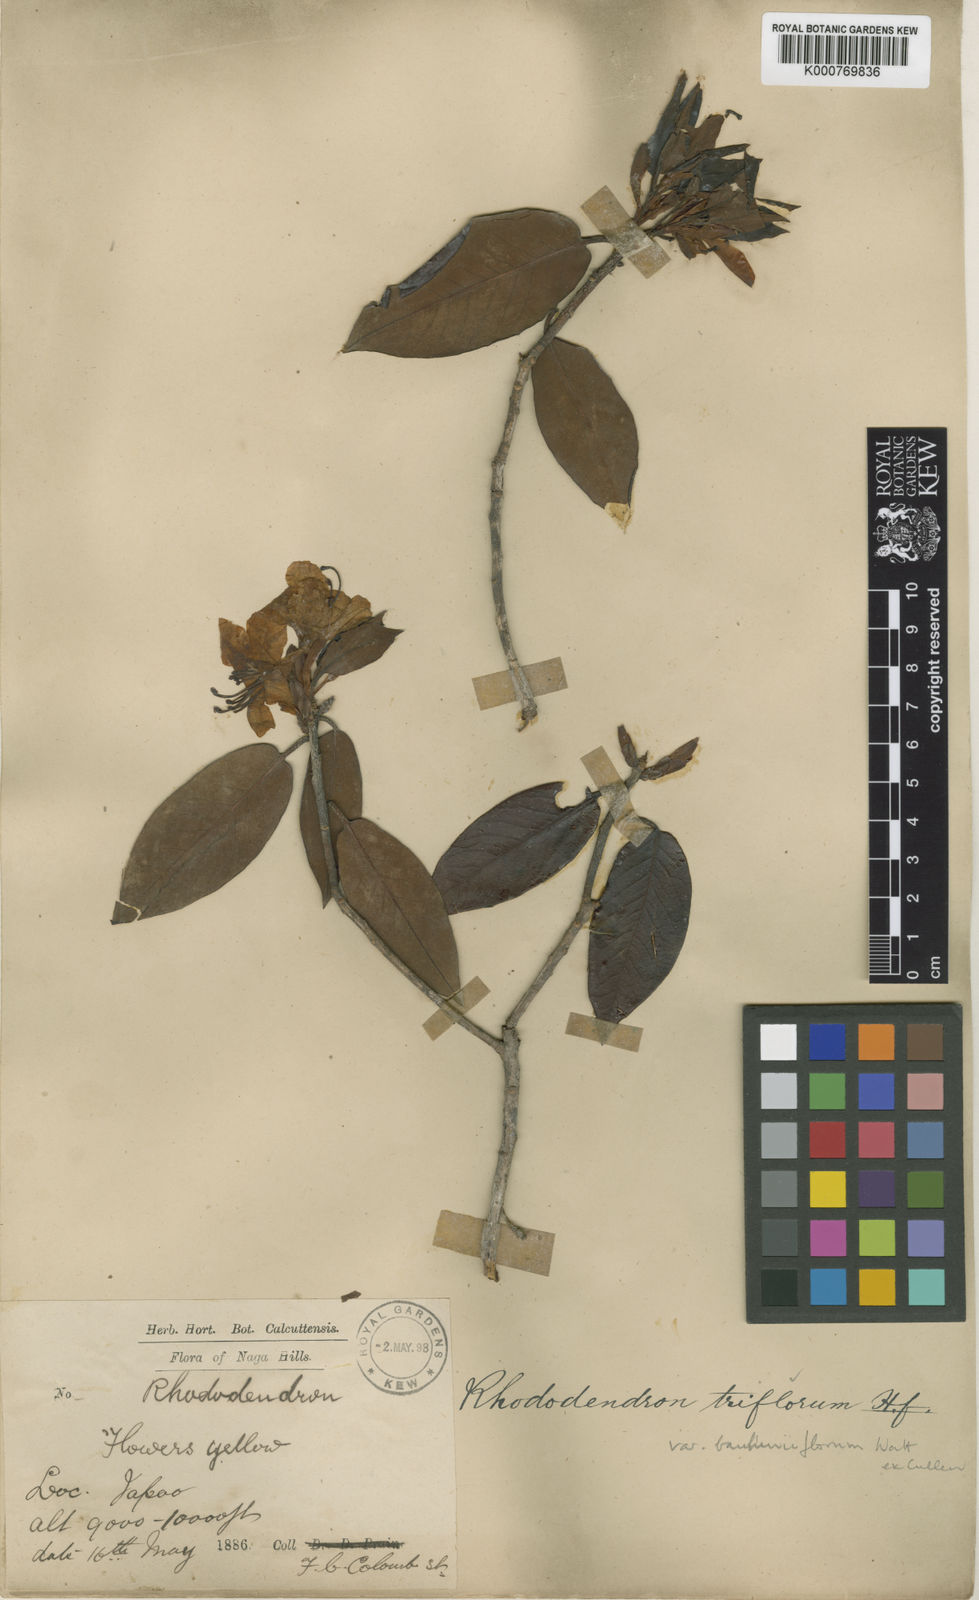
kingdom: Plantae
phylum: Tracheophyta
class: Magnoliopsida
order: Ericales
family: Ericaceae
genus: Rhododendron
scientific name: Rhododendron triflorum
